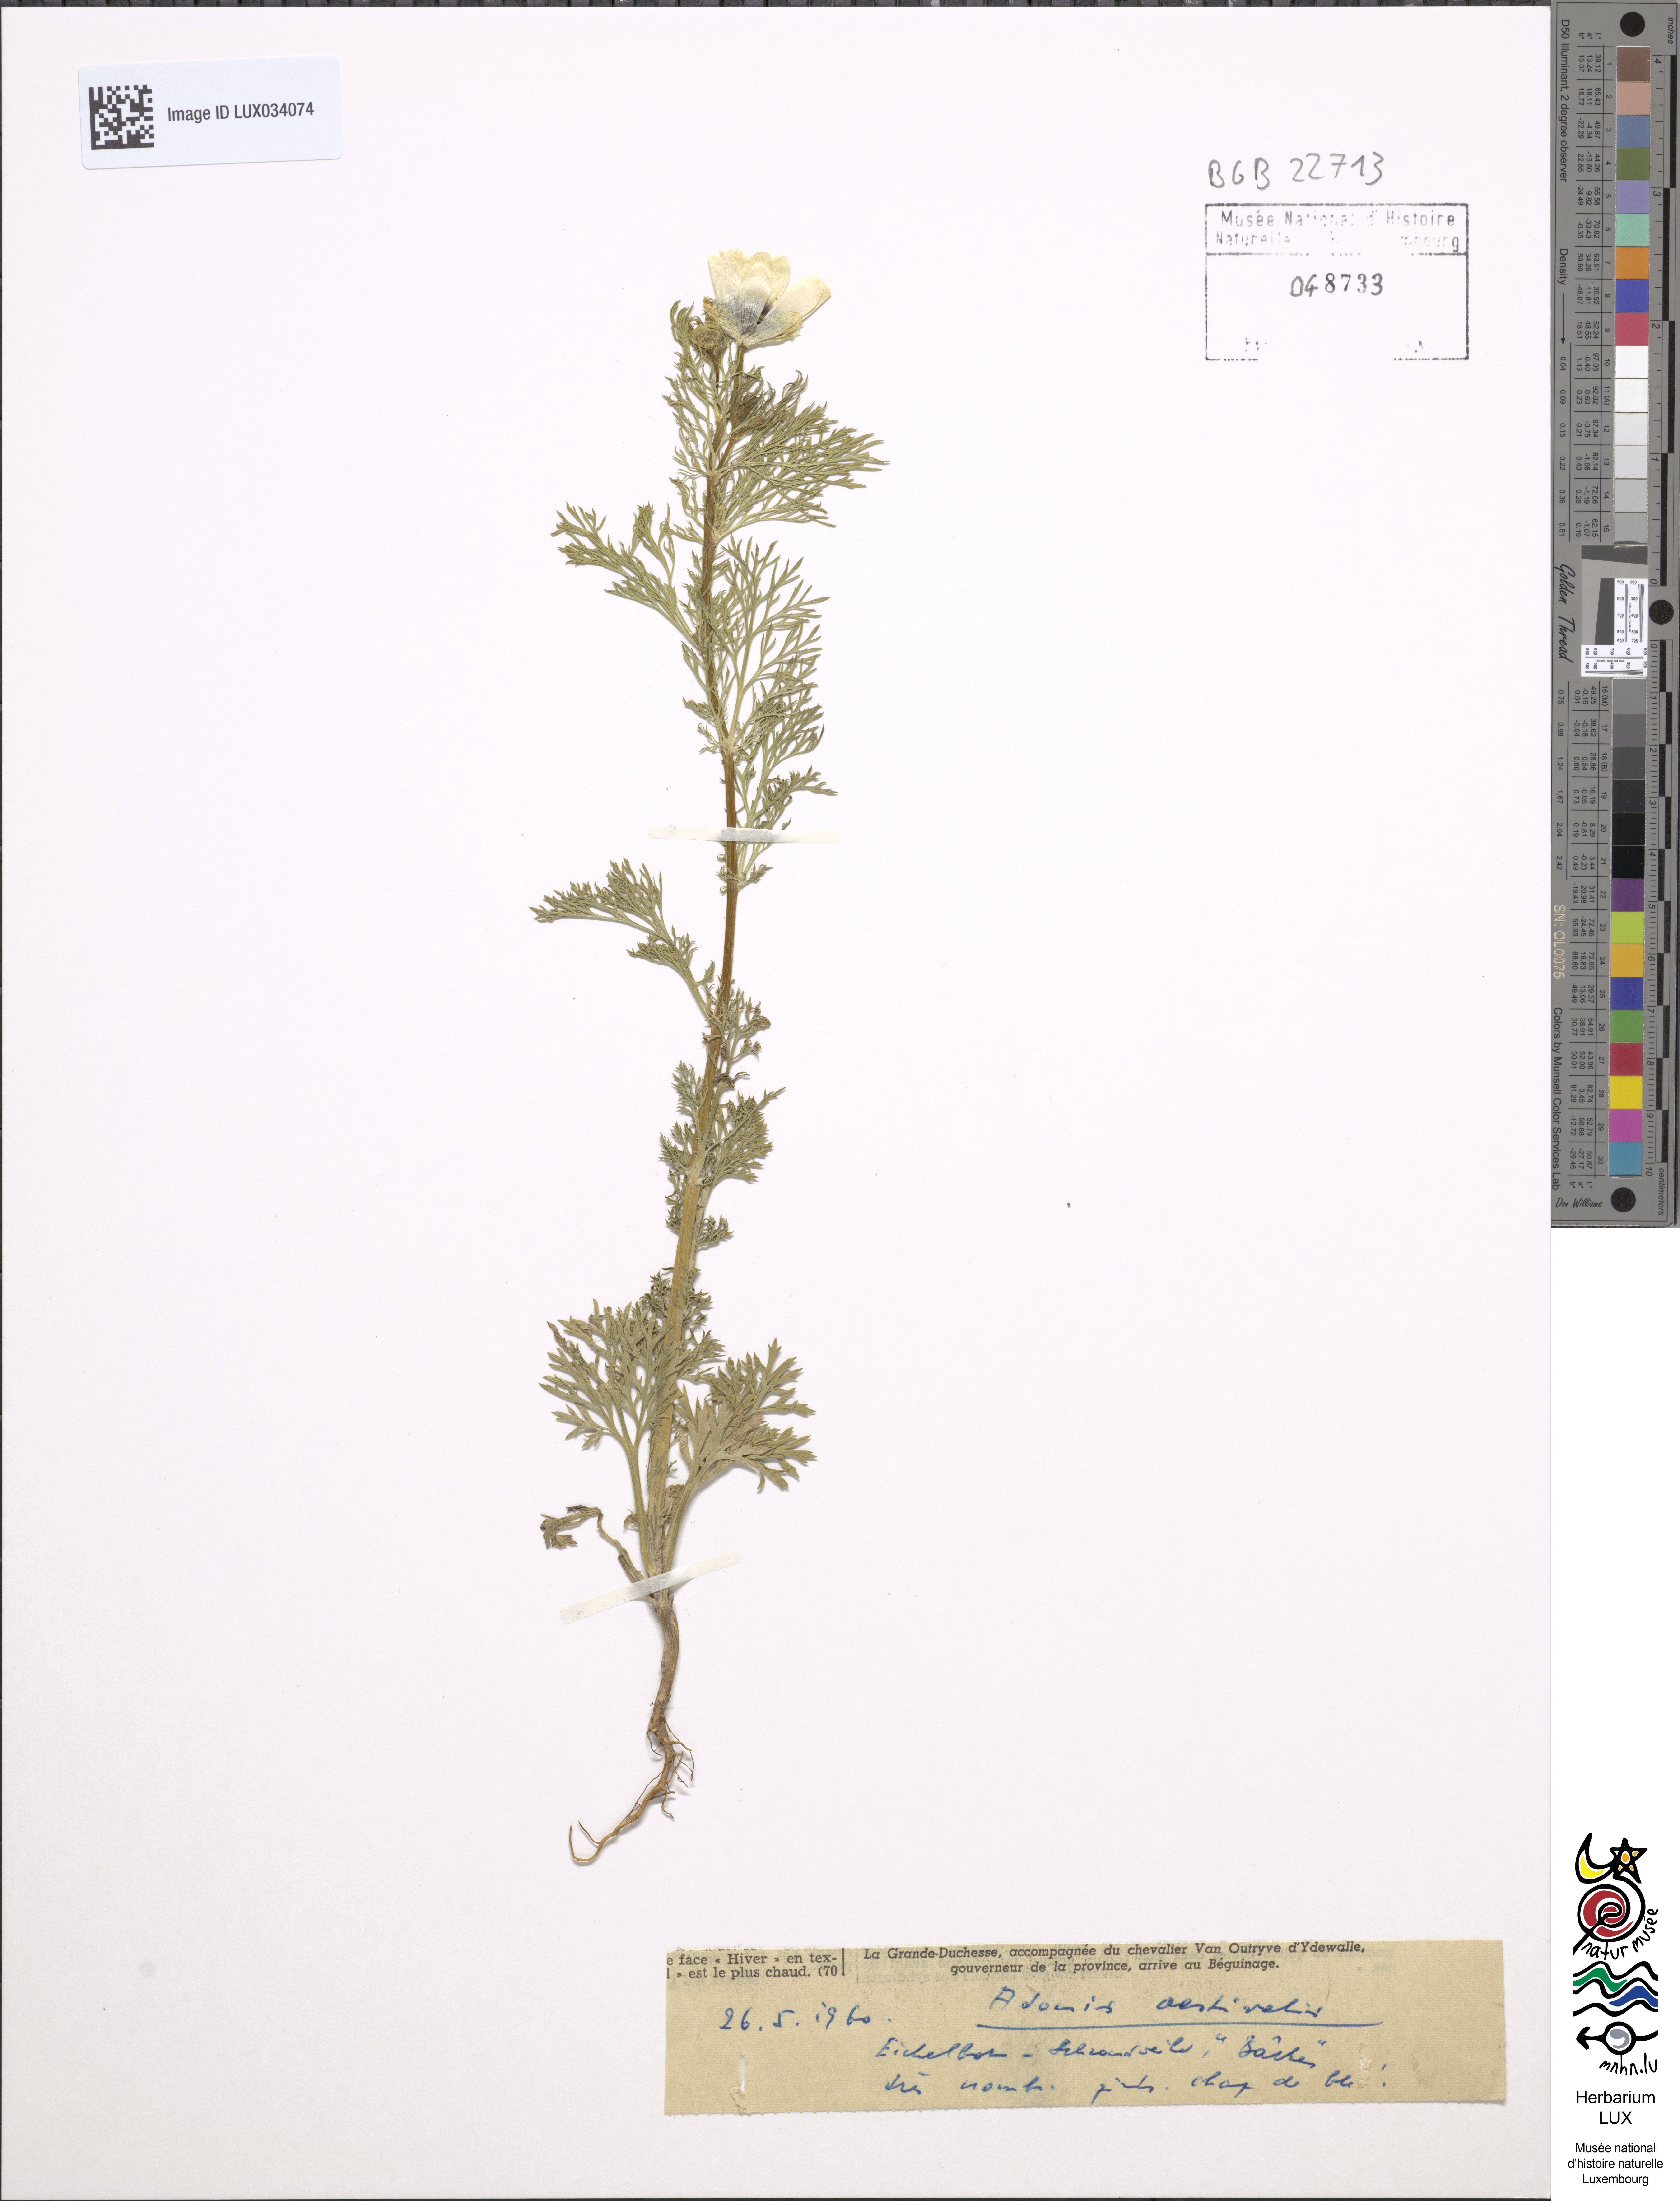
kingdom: Plantae
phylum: Tracheophyta
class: Magnoliopsida
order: Ranunculales
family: Ranunculaceae
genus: Adonis
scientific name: Adonis aestivalis
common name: Summer pheasant's-eye
